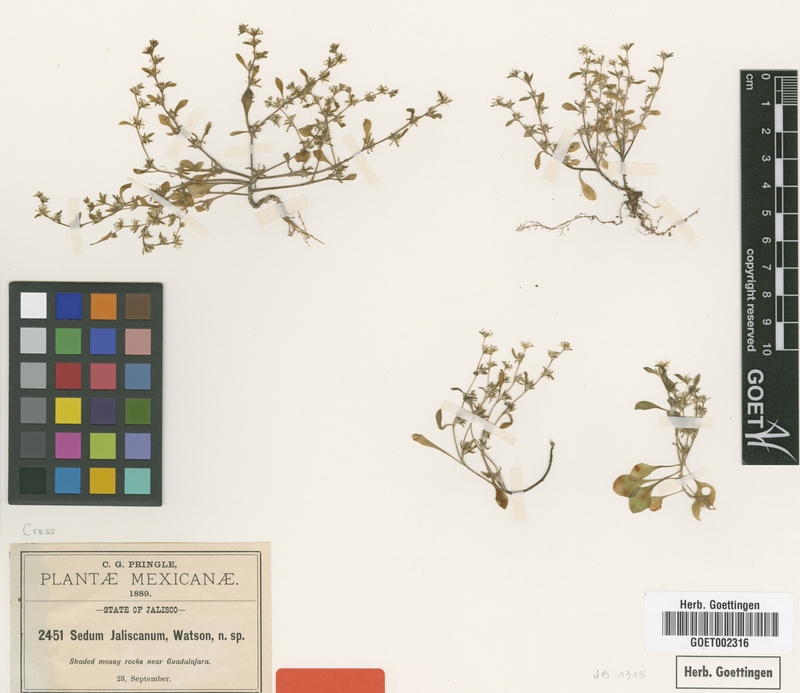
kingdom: Plantae
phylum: Tracheophyta
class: Magnoliopsida
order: Saxifragales
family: Crassulaceae
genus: Sedum
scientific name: Sedum jaliscanum
